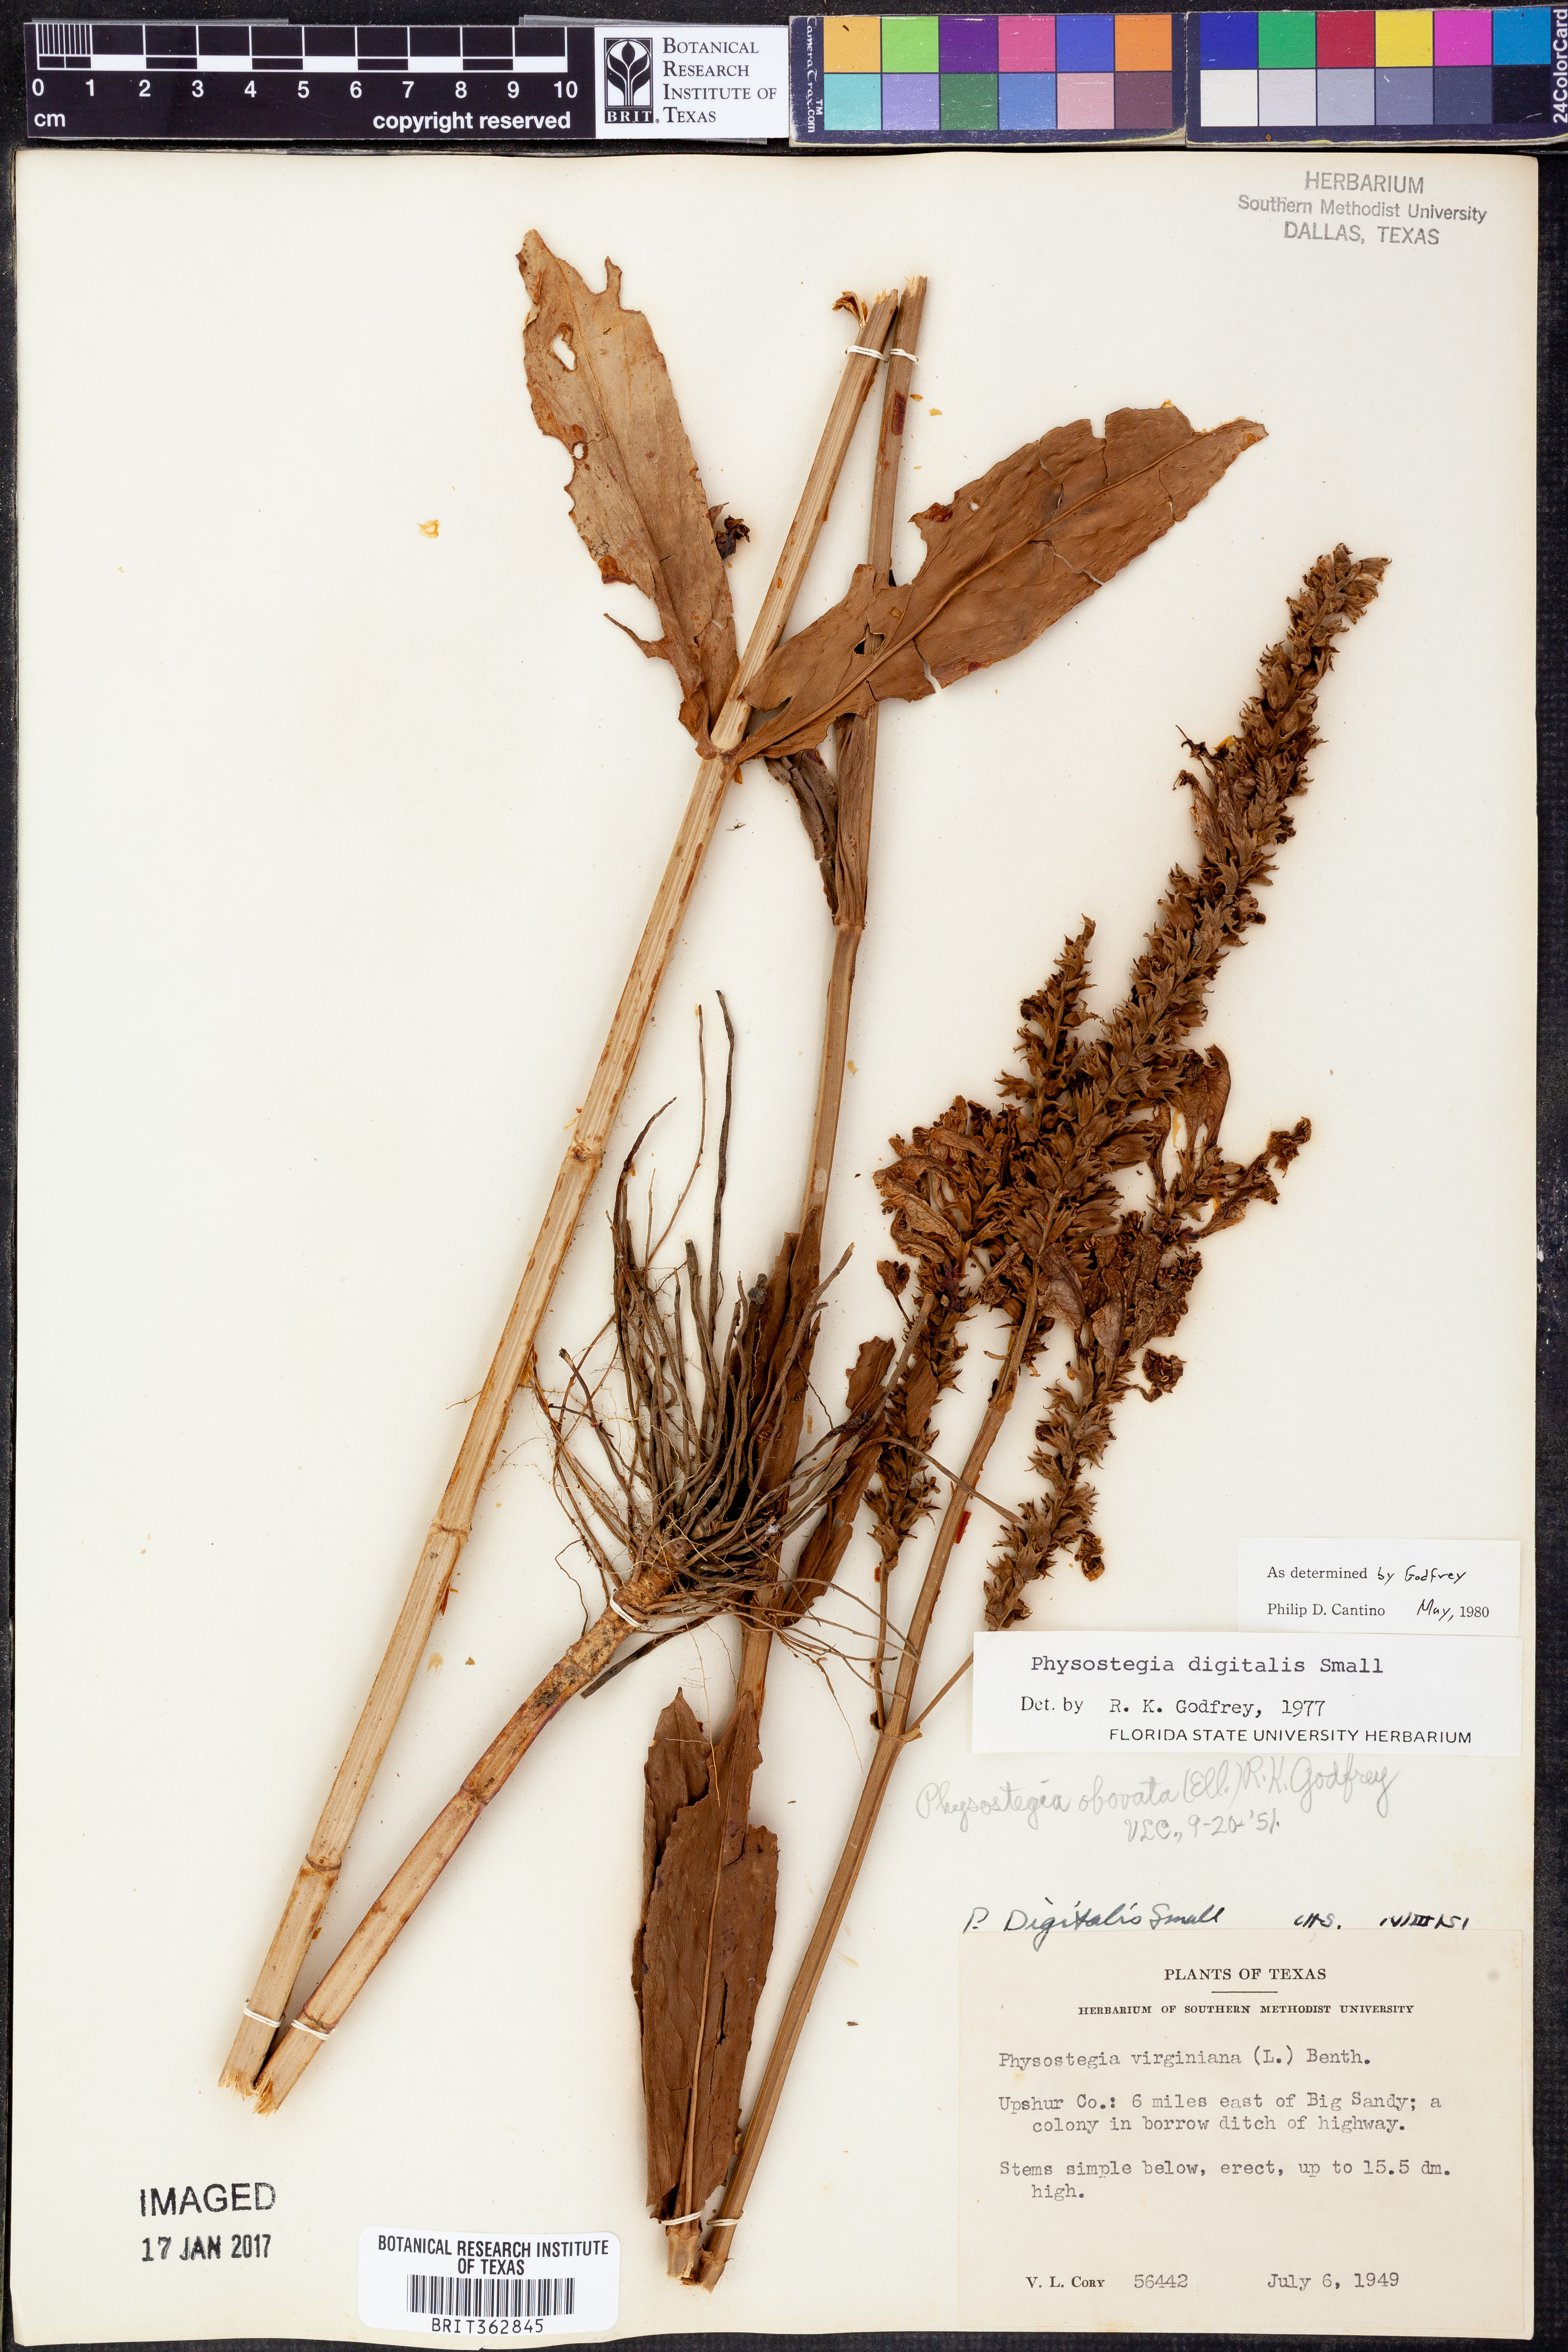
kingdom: Plantae
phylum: Tracheophyta
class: Magnoliopsida
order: Lamiales
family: Lamiaceae
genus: Physostegia
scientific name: Physostegia digitalis
